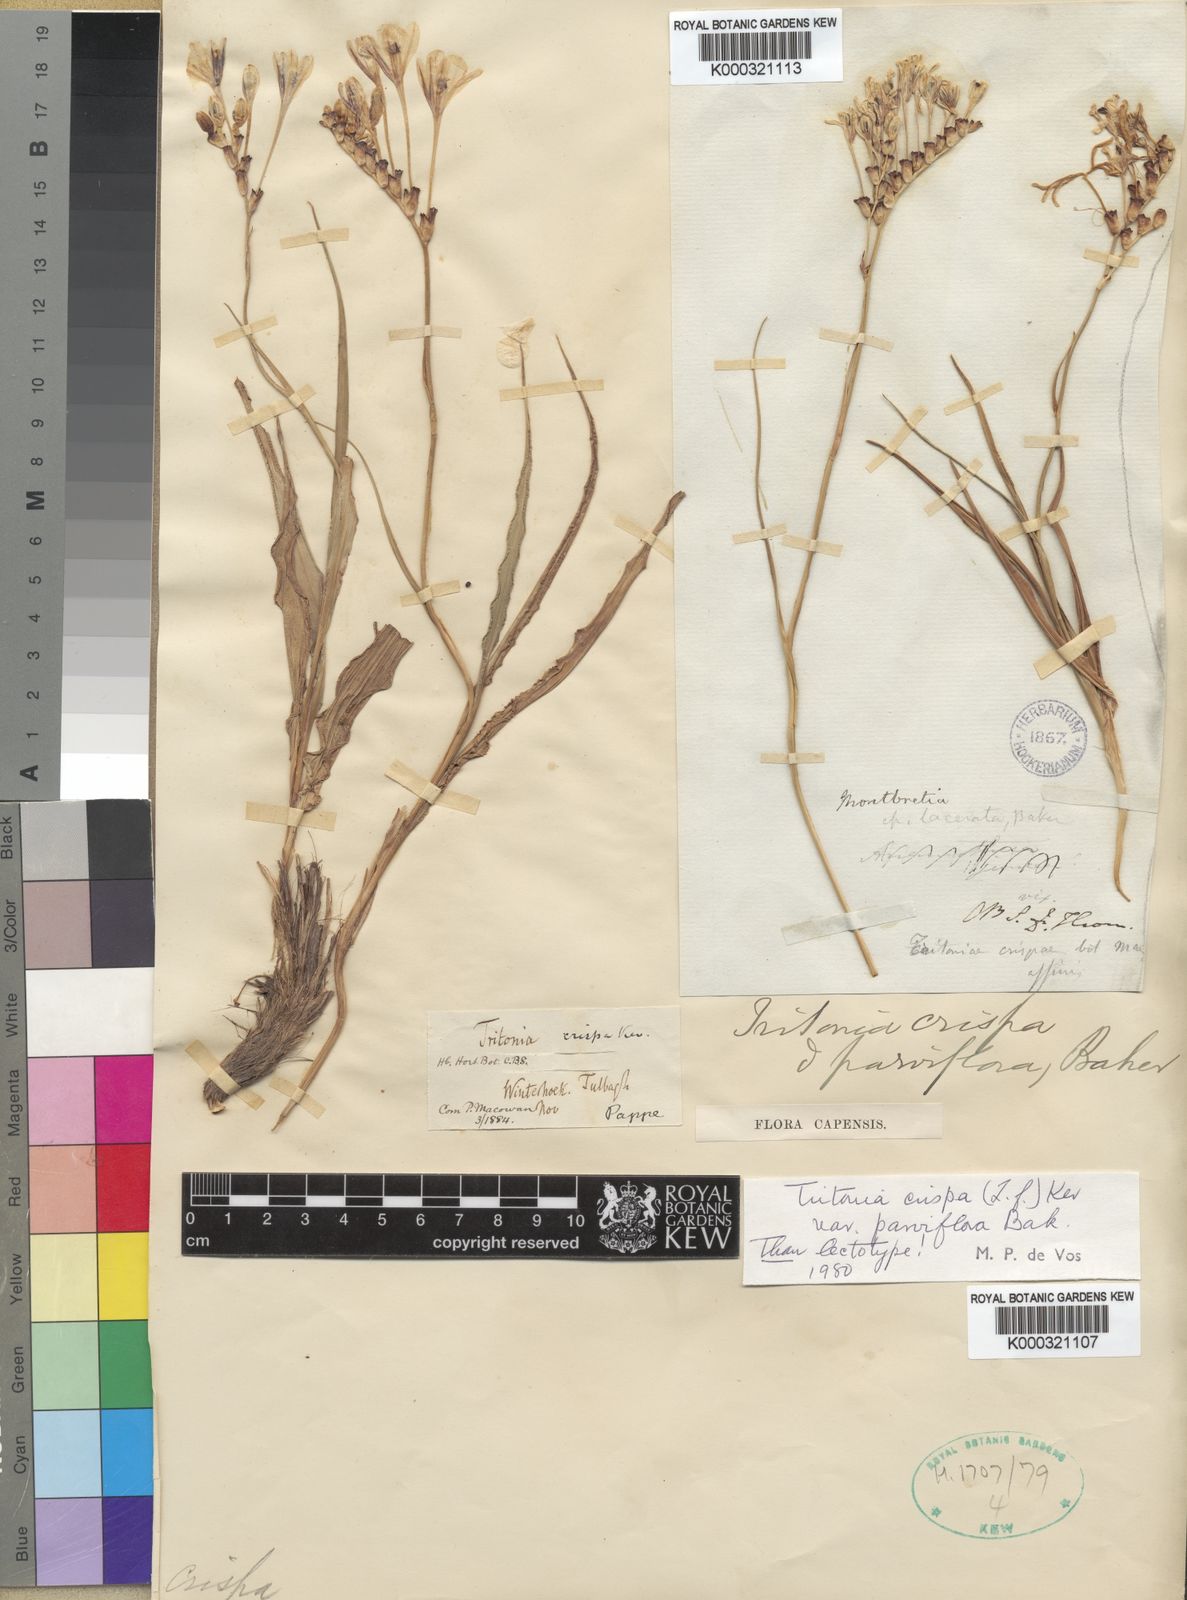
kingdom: Plantae
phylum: Tracheophyta
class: Liliopsida
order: Asparagales
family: Iridaceae
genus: Tritonia
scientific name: Tritonia undulata
